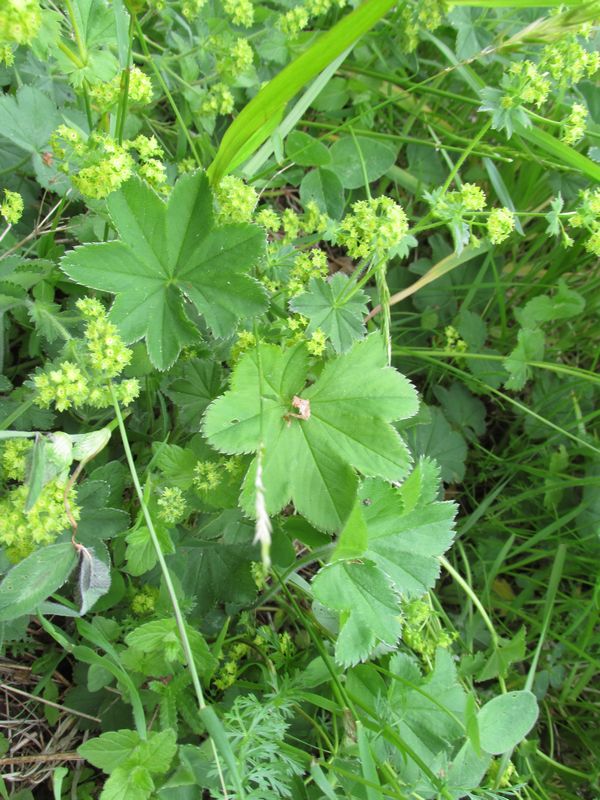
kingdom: Plantae
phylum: Tracheophyta
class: Magnoliopsida
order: Rosales
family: Rosaceae
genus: Alchemilla
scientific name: Alchemilla xanthochlora
